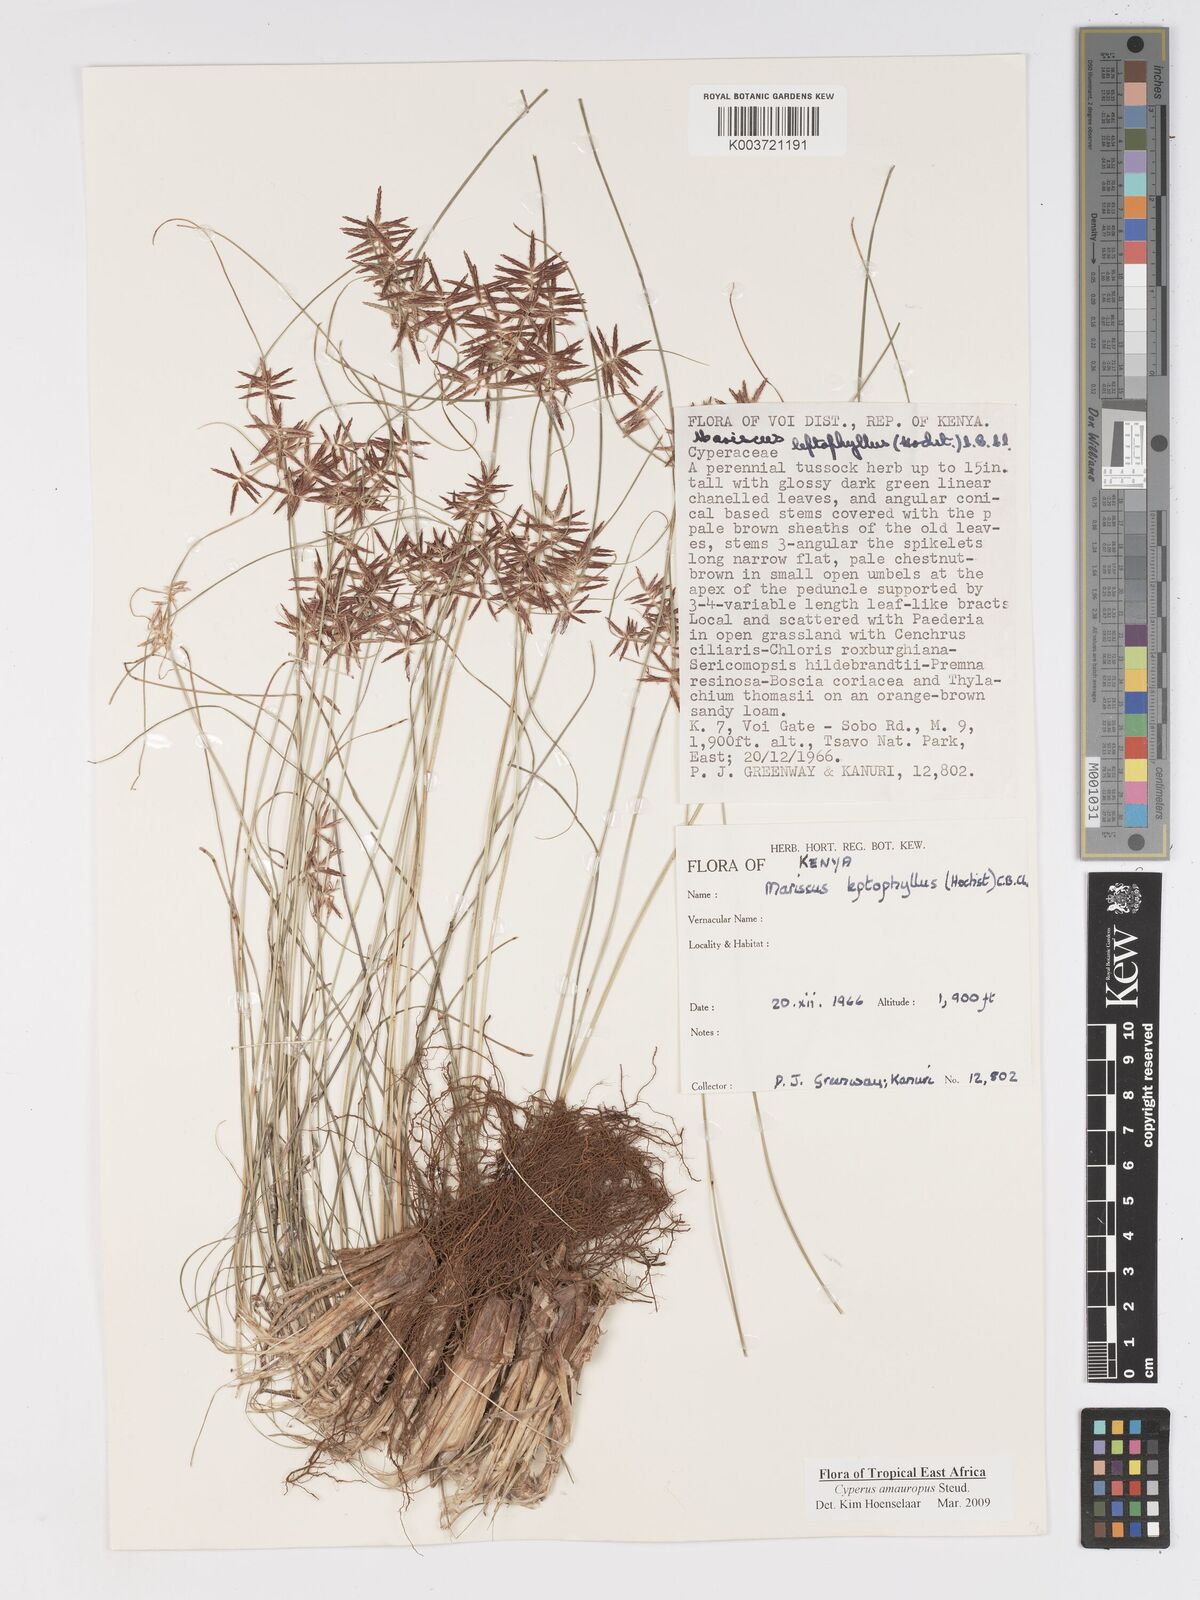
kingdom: Plantae
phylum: Tracheophyta
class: Liliopsida
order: Poales
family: Cyperaceae
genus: Cyperus
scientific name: Cyperus amauropus
